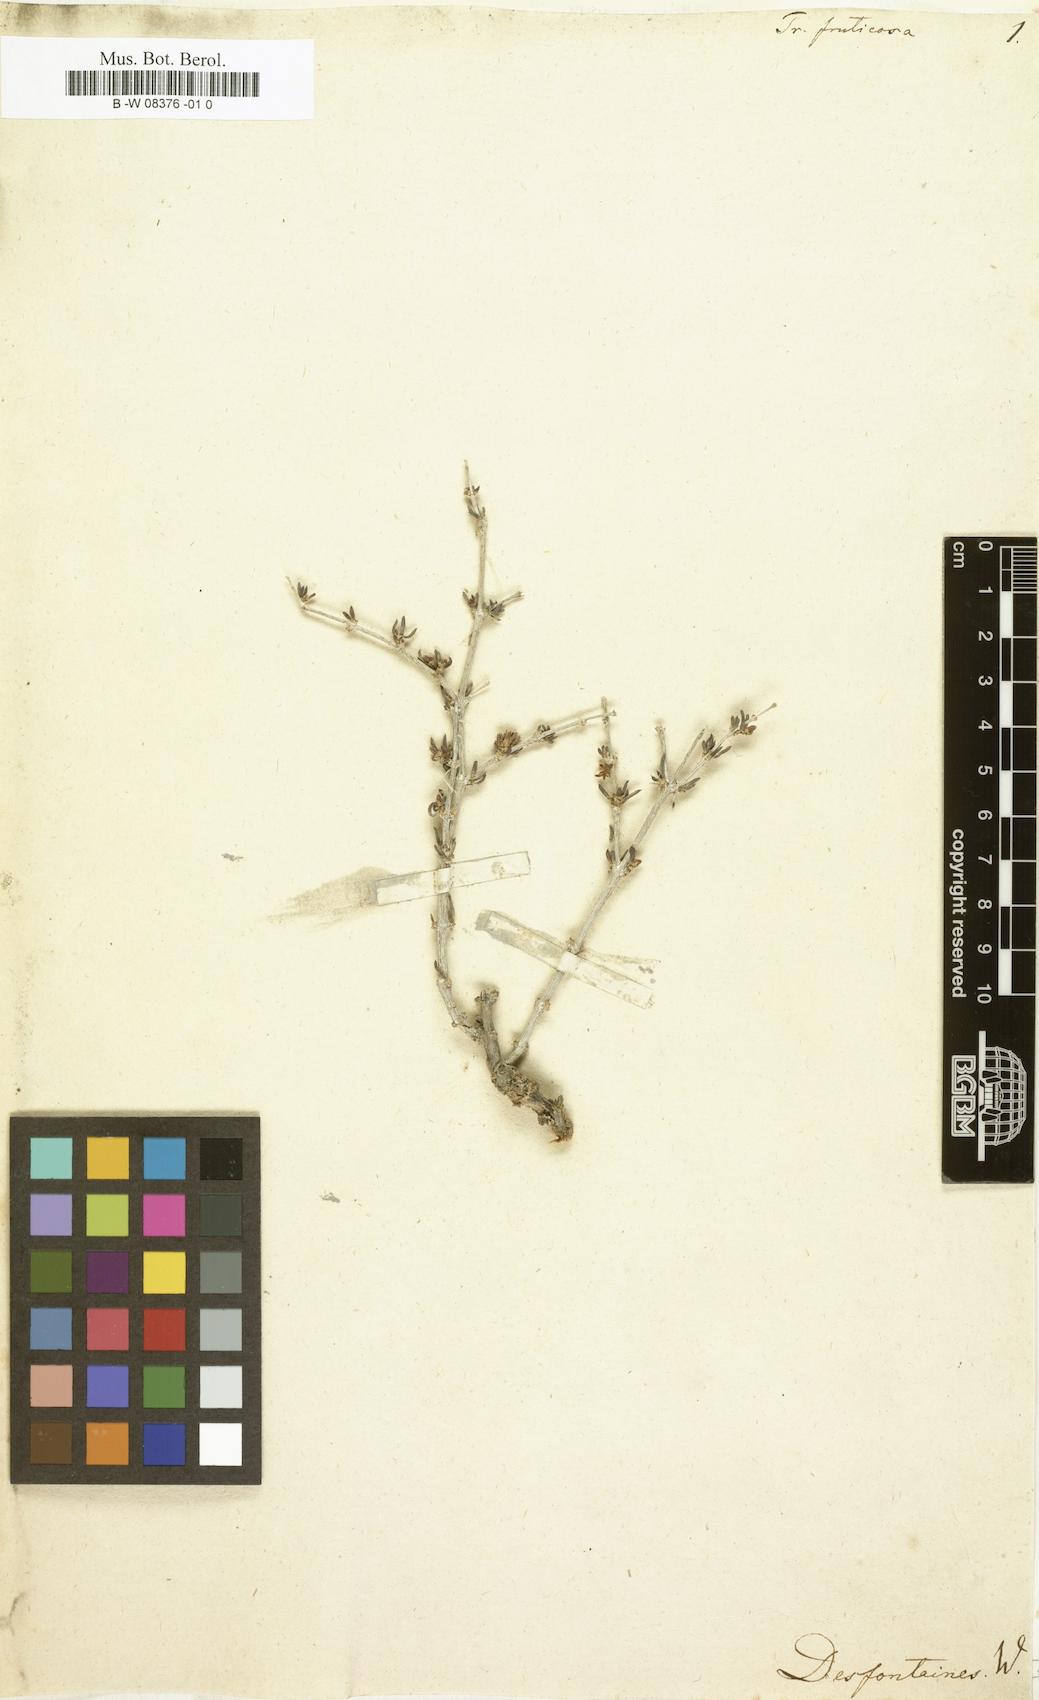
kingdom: Plantae
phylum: Tracheophyta
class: Magnoliopsida
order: Caryophyllales
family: Caryophyllaceae
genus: Gymnocarpos
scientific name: Gymnocarpos decander
